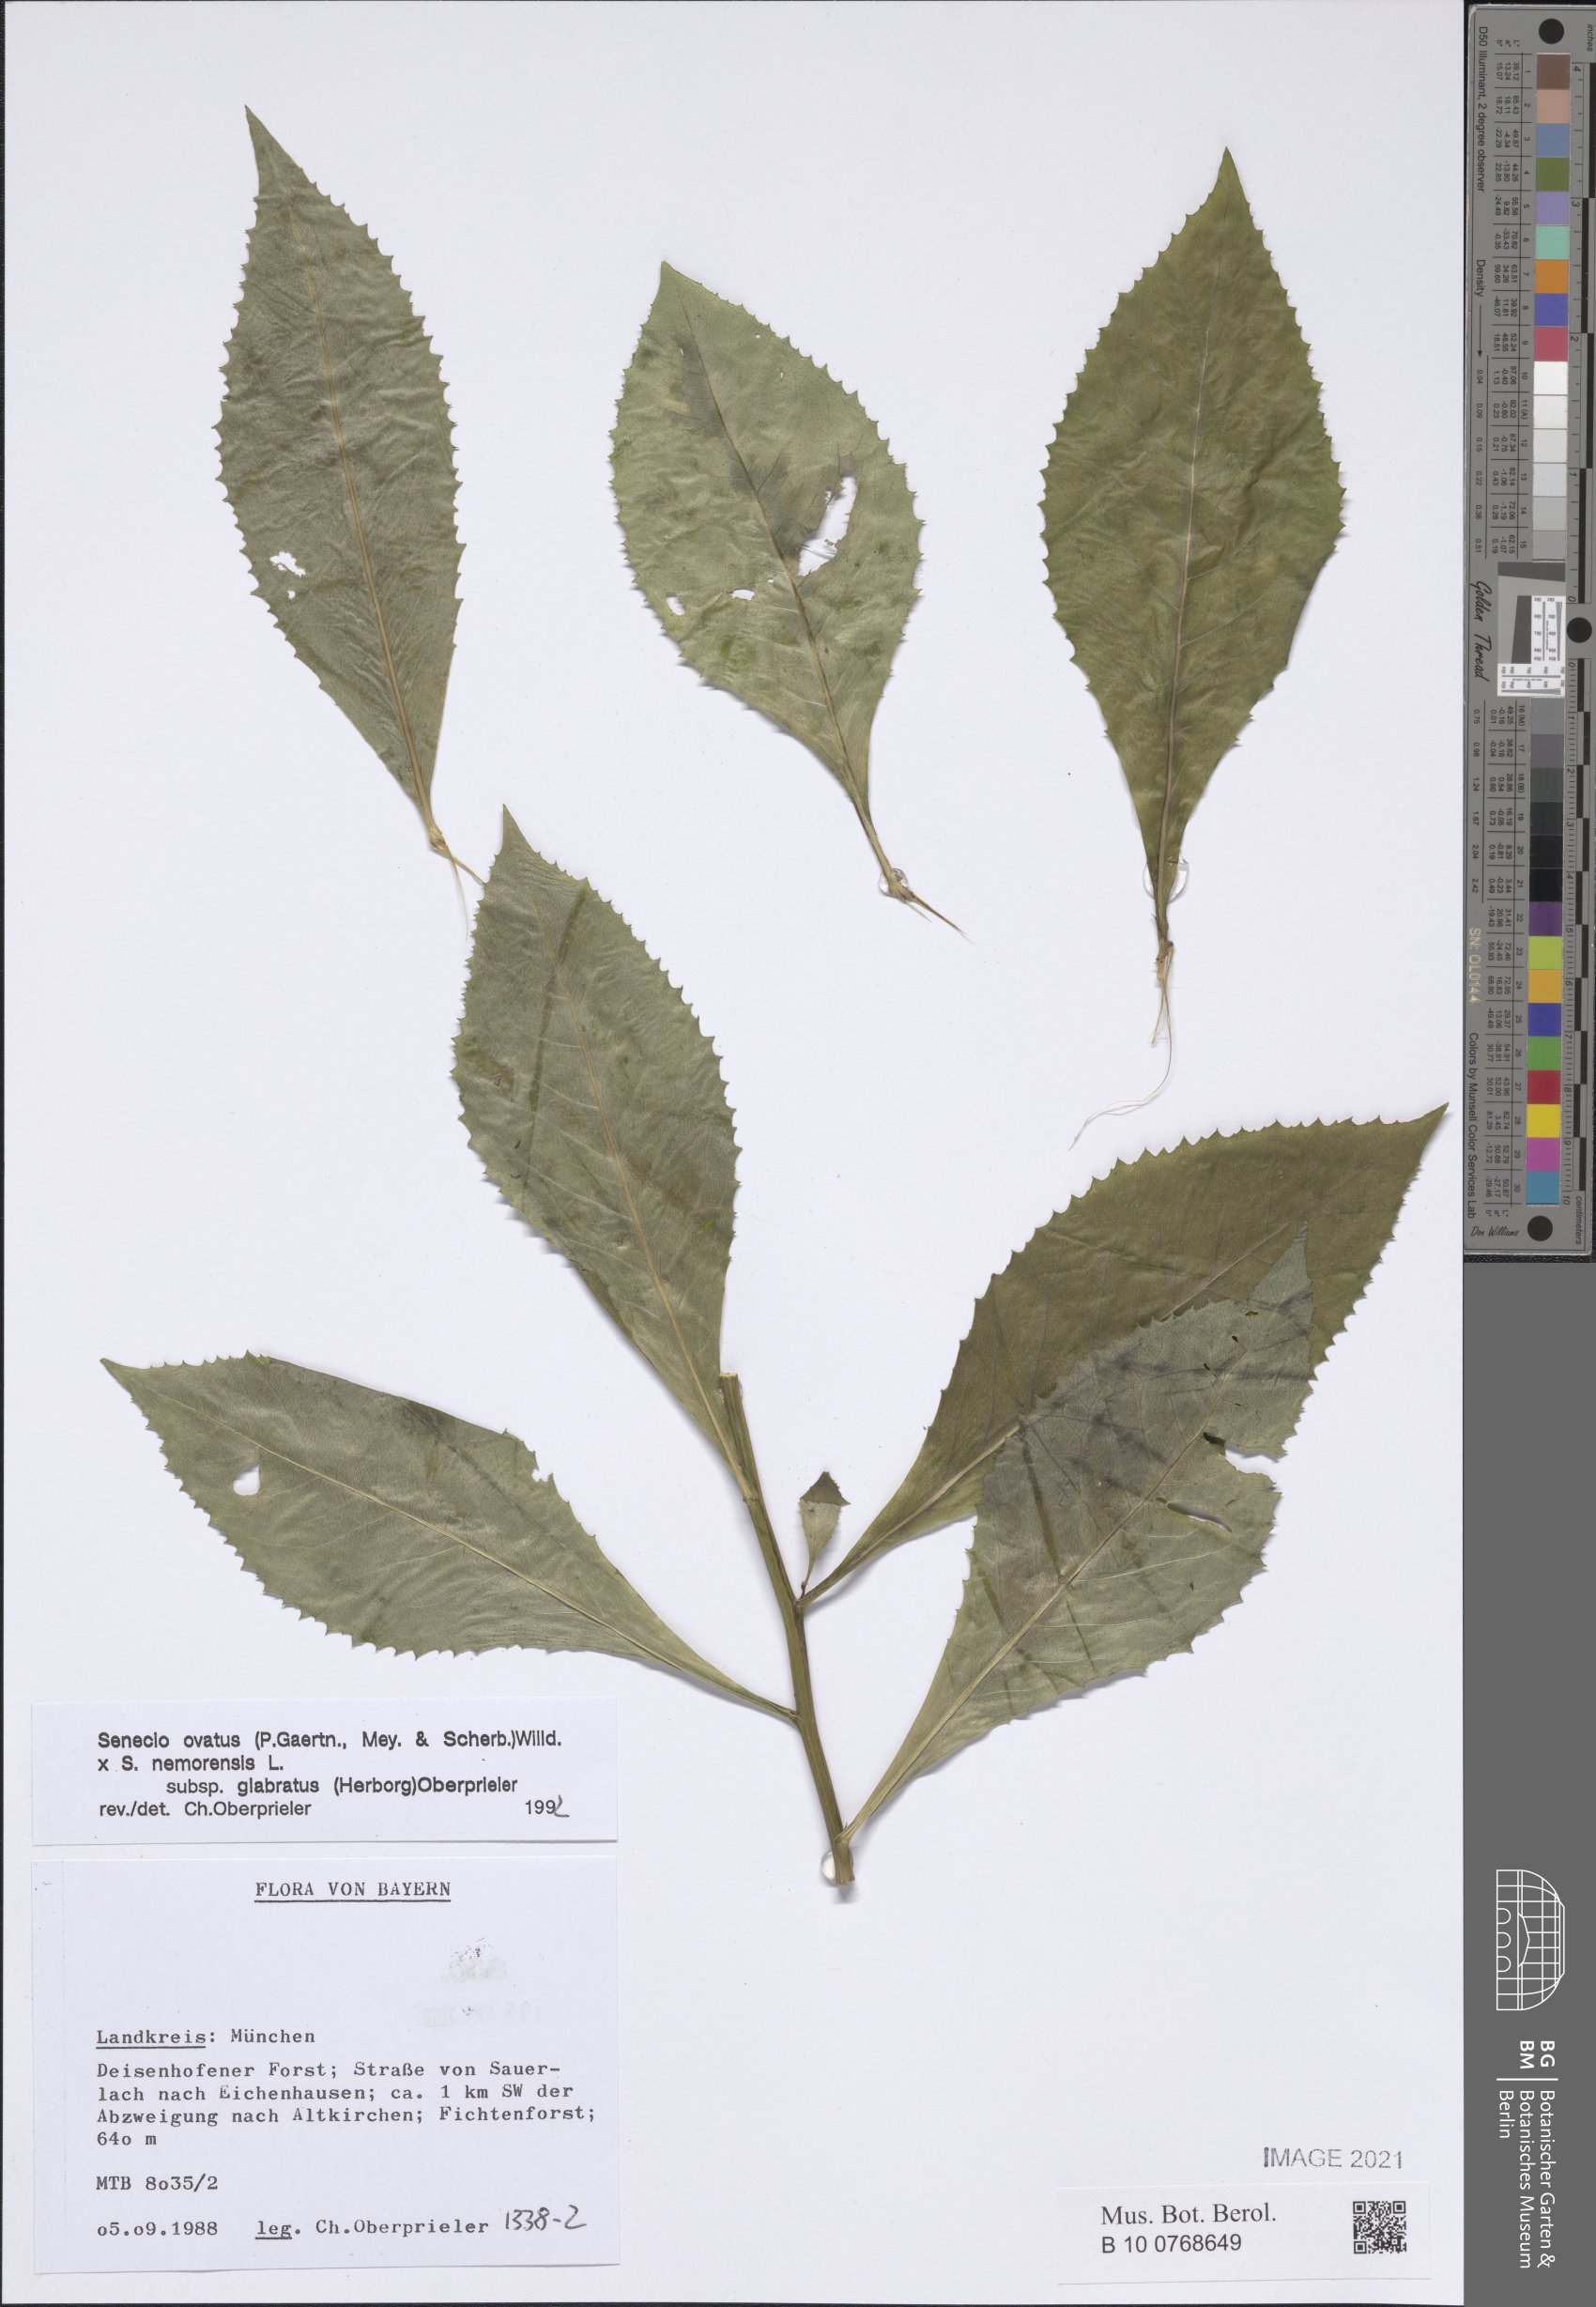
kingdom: Plantae
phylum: Tracheophyta
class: Magnoliopsida
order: Asterales
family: Asteraceae
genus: Senecio
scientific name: Senecio ovatus
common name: Wood ragwort
